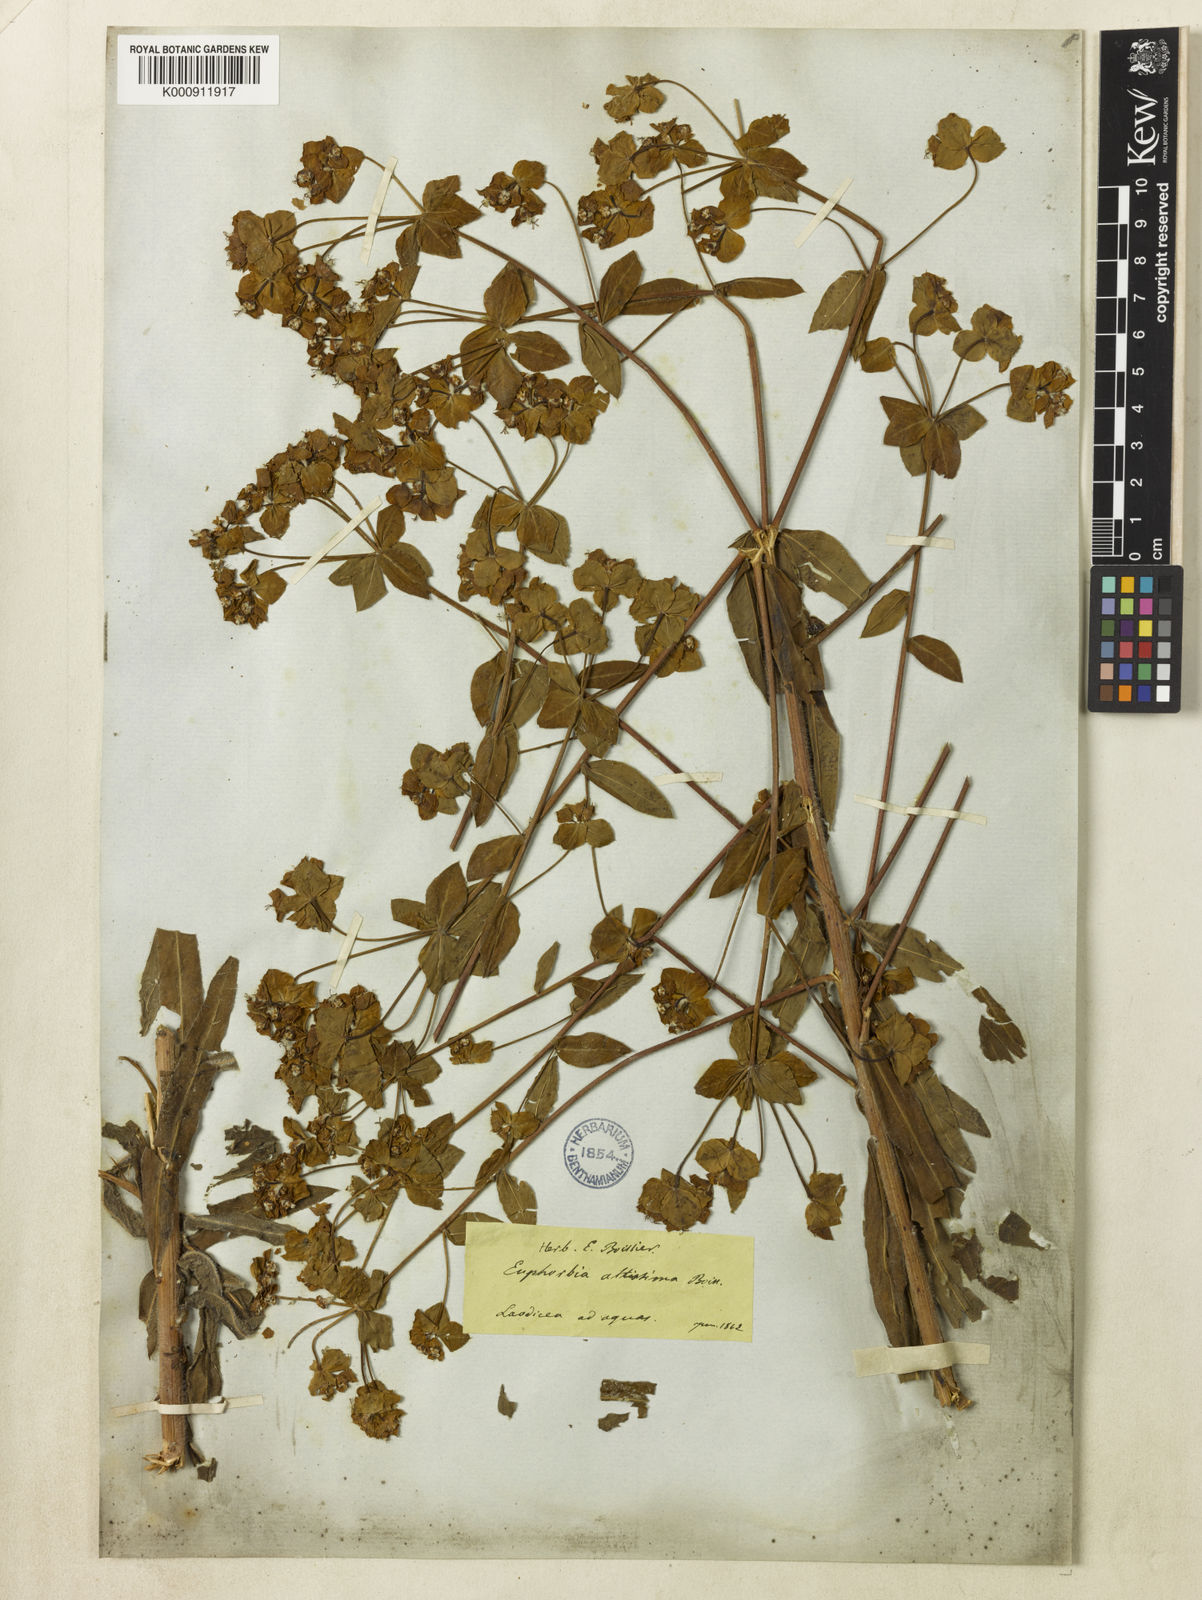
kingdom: Plantae
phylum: Tracheophyta
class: Magnoliopsida
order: Malpighiales
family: Euphorbiaceae
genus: Euphorbia
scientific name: Euphorbia altissima
